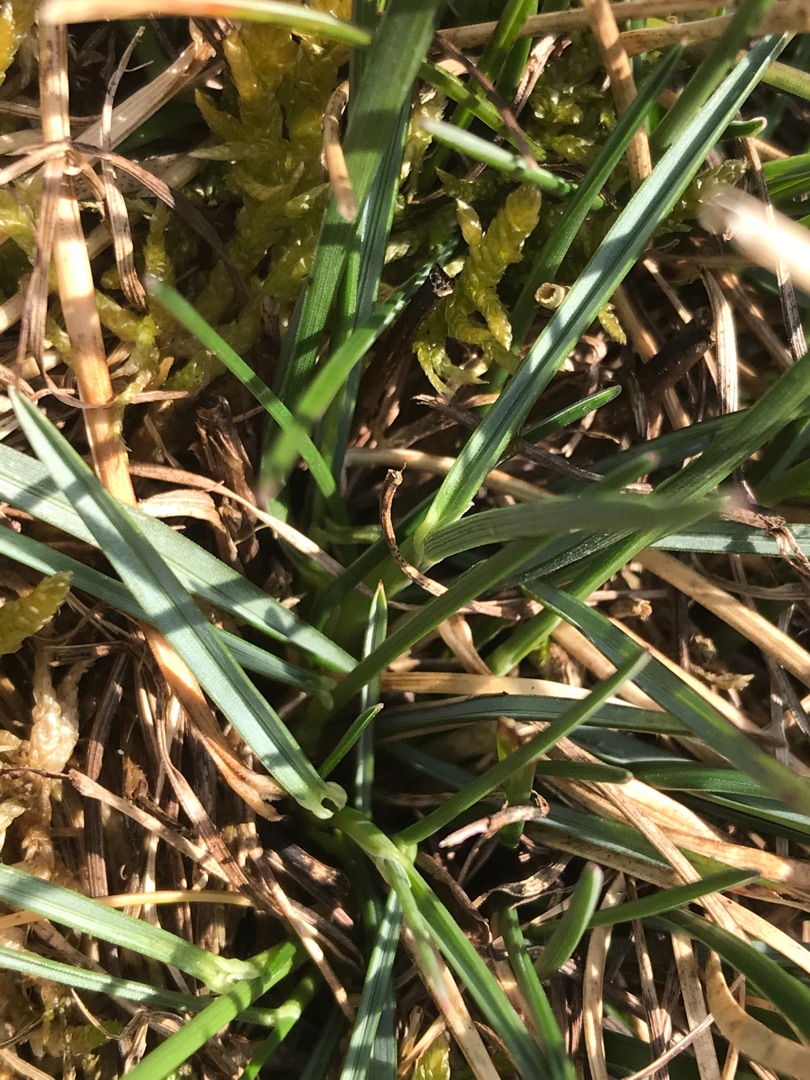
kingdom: Plantae
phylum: Tracheophyta
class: Liliopsida
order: Poales
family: Poaceae
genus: Helictochloa
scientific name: Helictochloa pratensis
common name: Eng-havre
